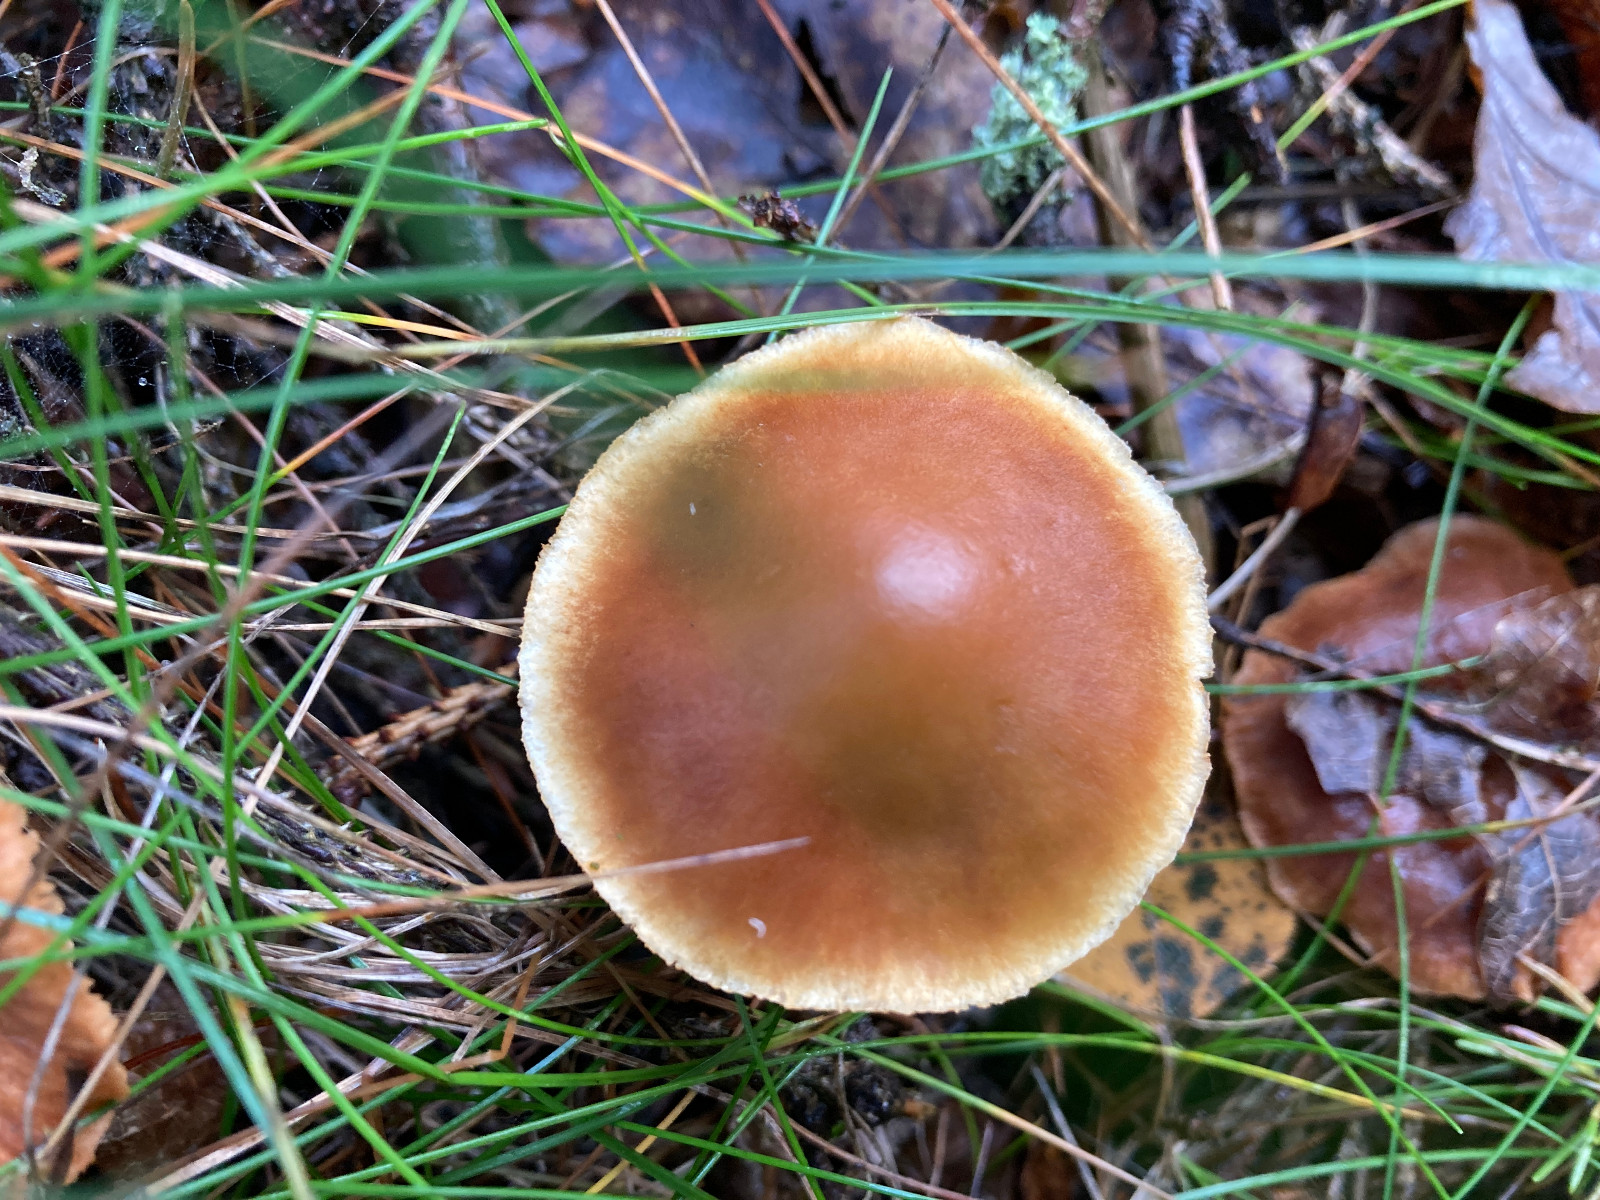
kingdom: Fungi
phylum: Basidiomycota
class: Agaricomycetes
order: Agaricales
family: Hymenogastraceae
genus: Gymnopilus
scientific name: Gymnopilus penetrans
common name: plettet flammehat
